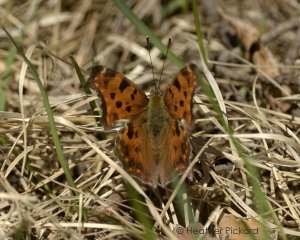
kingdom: Animalia
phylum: Arthropoda
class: Insecta
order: Lepidoptera
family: Nymphalidae
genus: Polygonia
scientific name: Polygonia comma
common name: Eastern Comma
